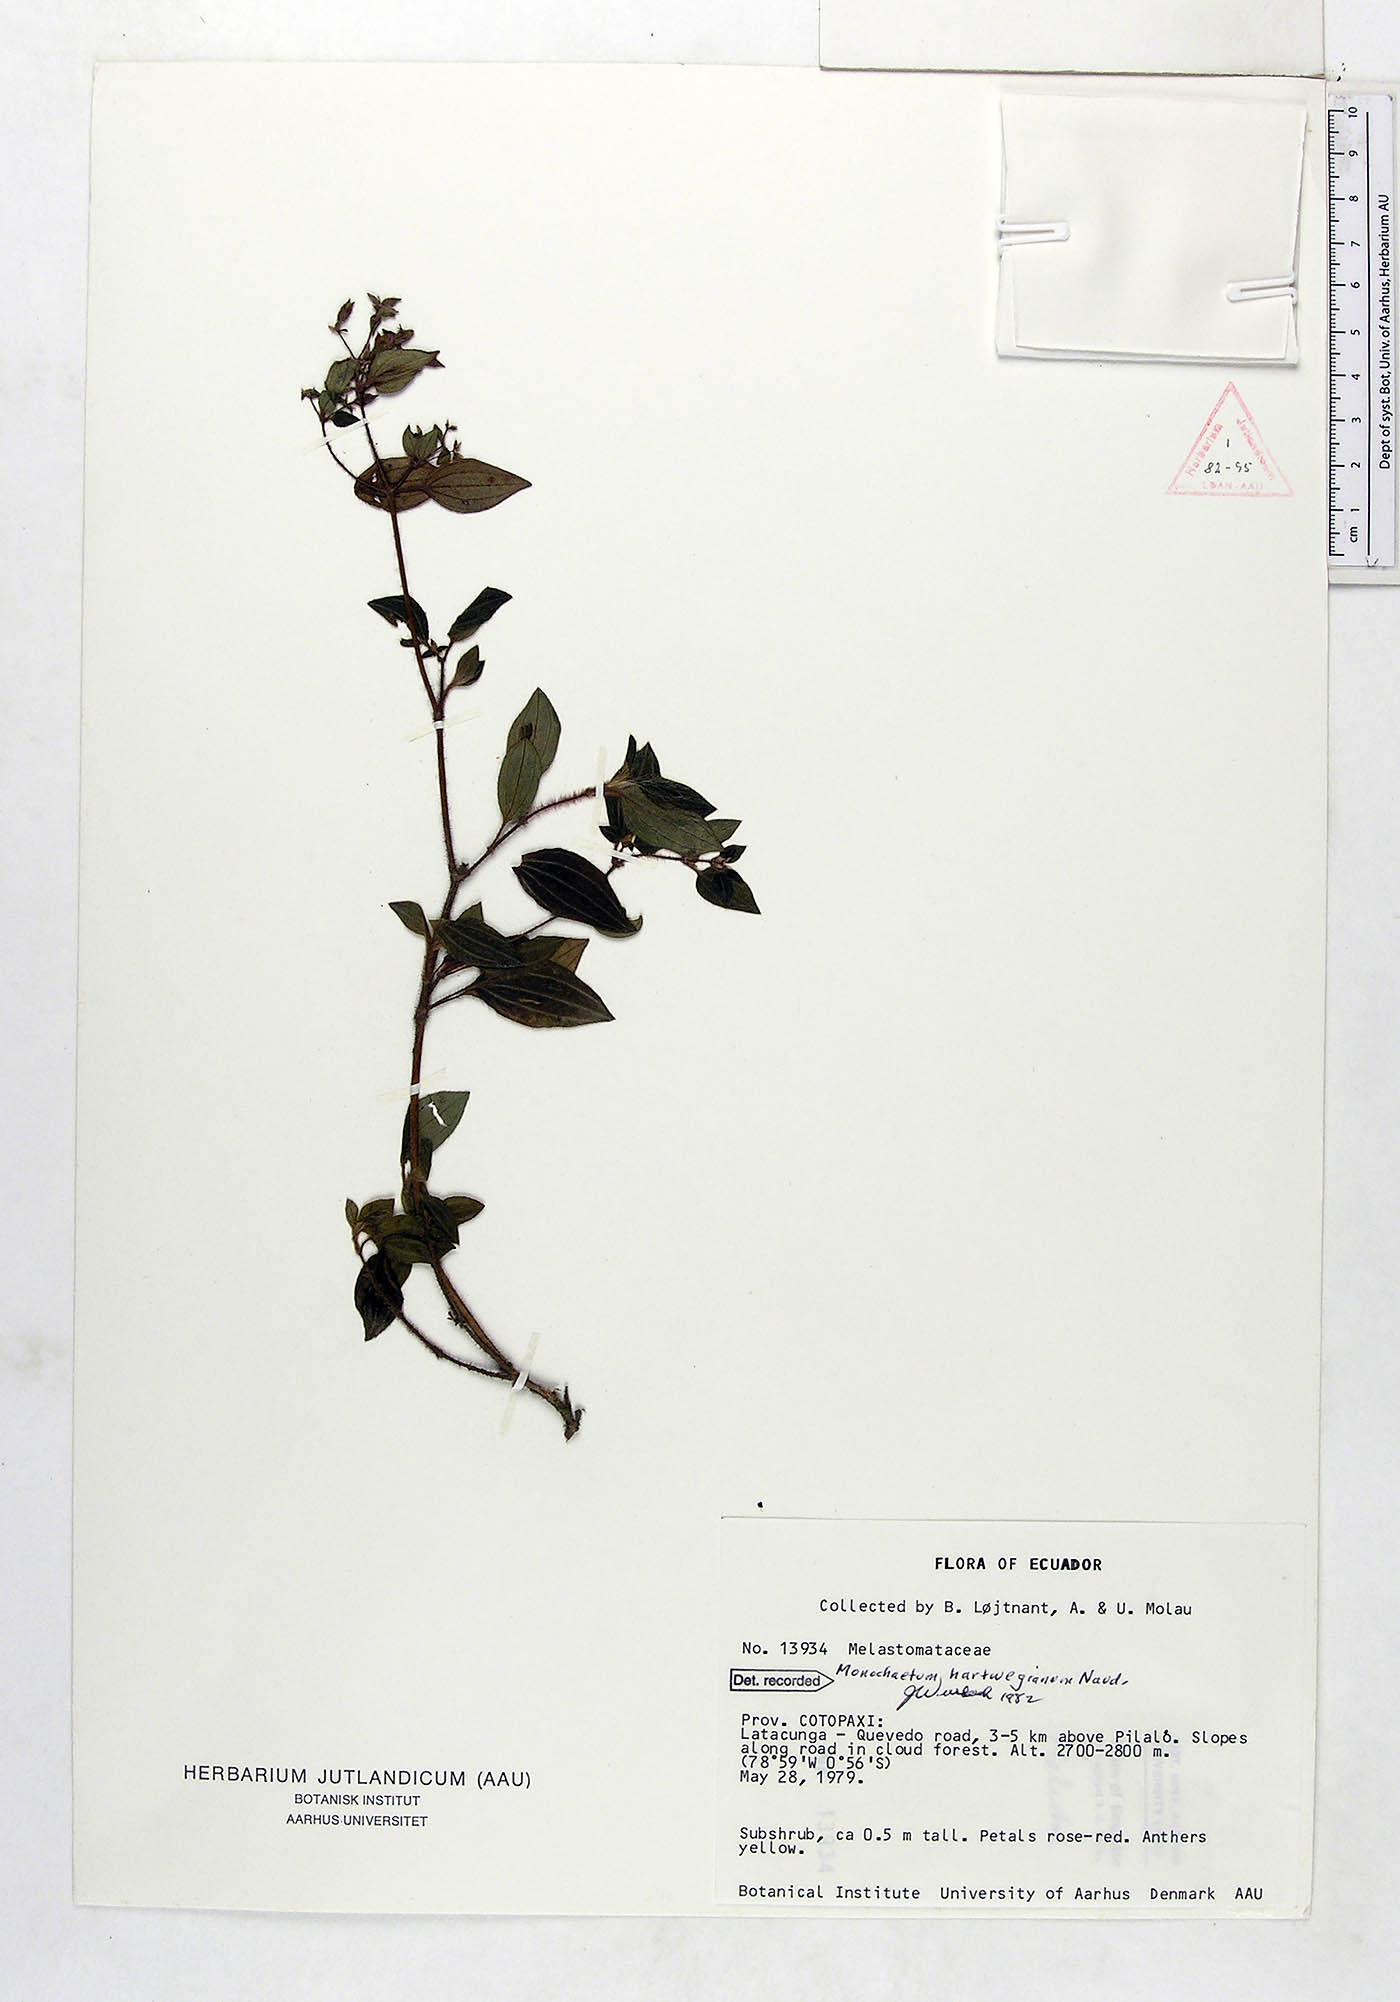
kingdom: Plantae
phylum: Tracheophyta
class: Magnoliopsida
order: Myrtales
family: Melastomataceae
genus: Monochaetum
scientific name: Monochaetum hartwegianum
